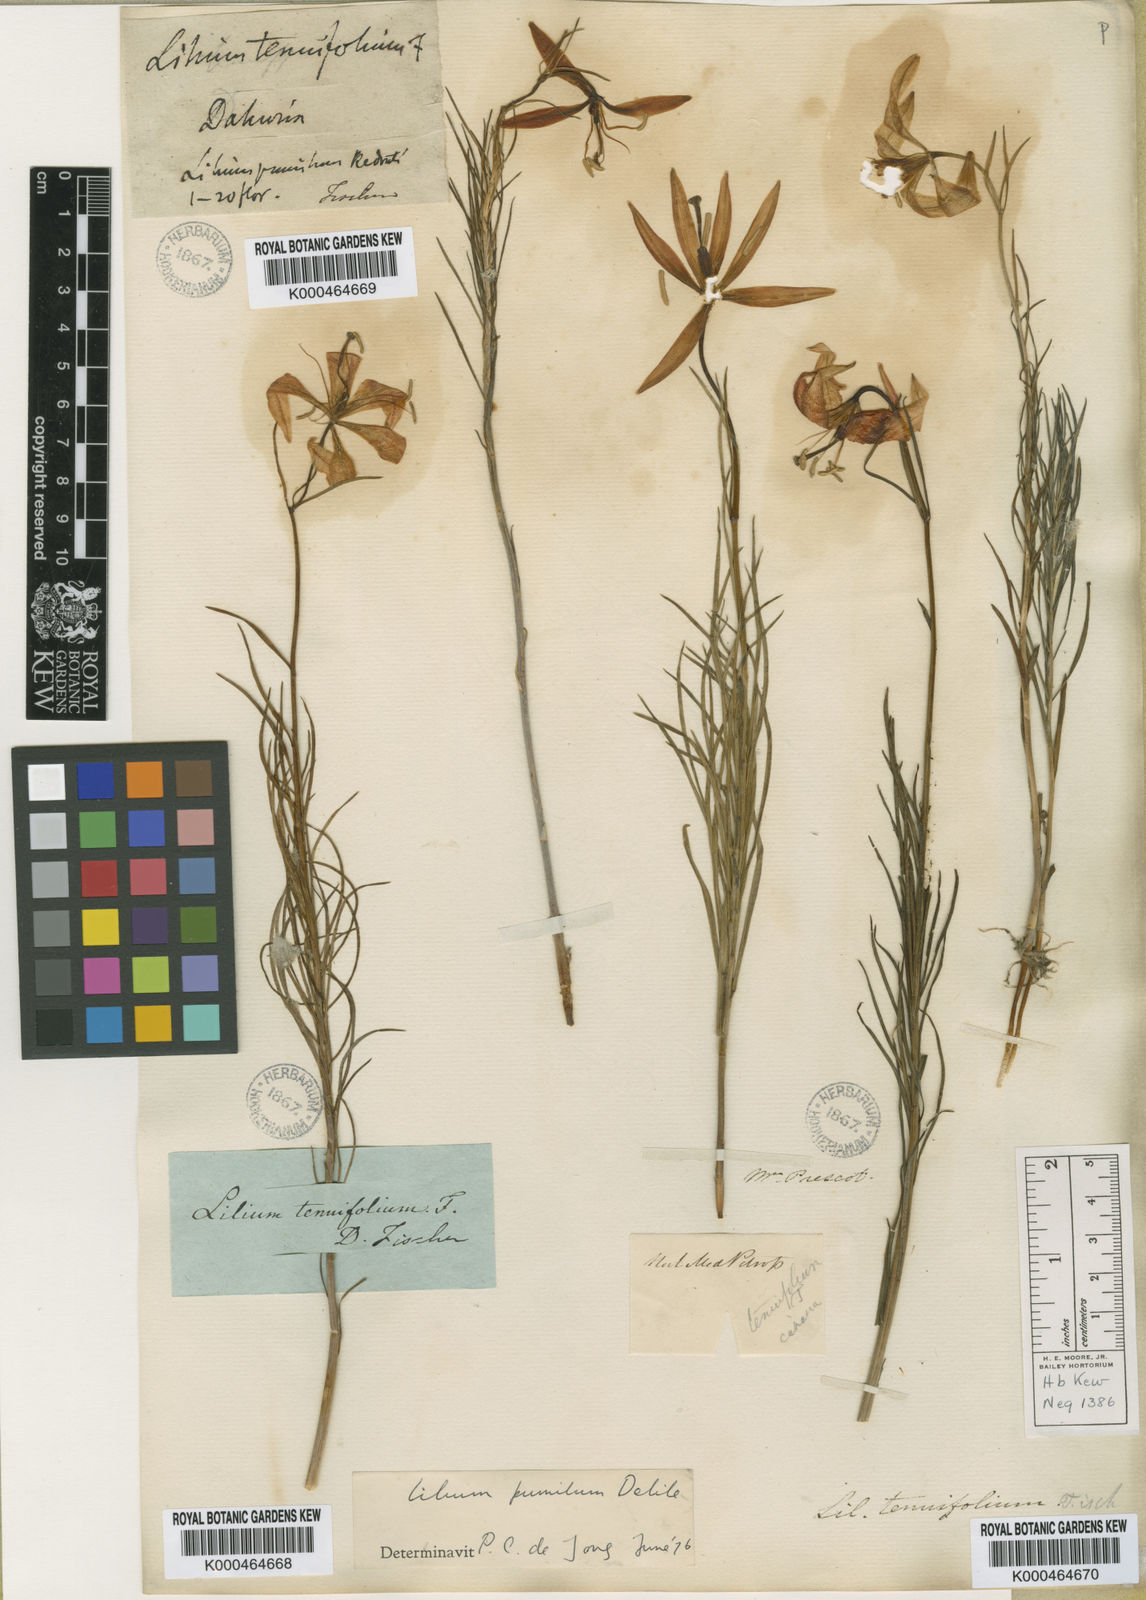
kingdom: Plantae
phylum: Tracheophyta
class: Liliopsida
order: Liliales
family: Liliaceae
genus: Lilium
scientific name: Lilium
